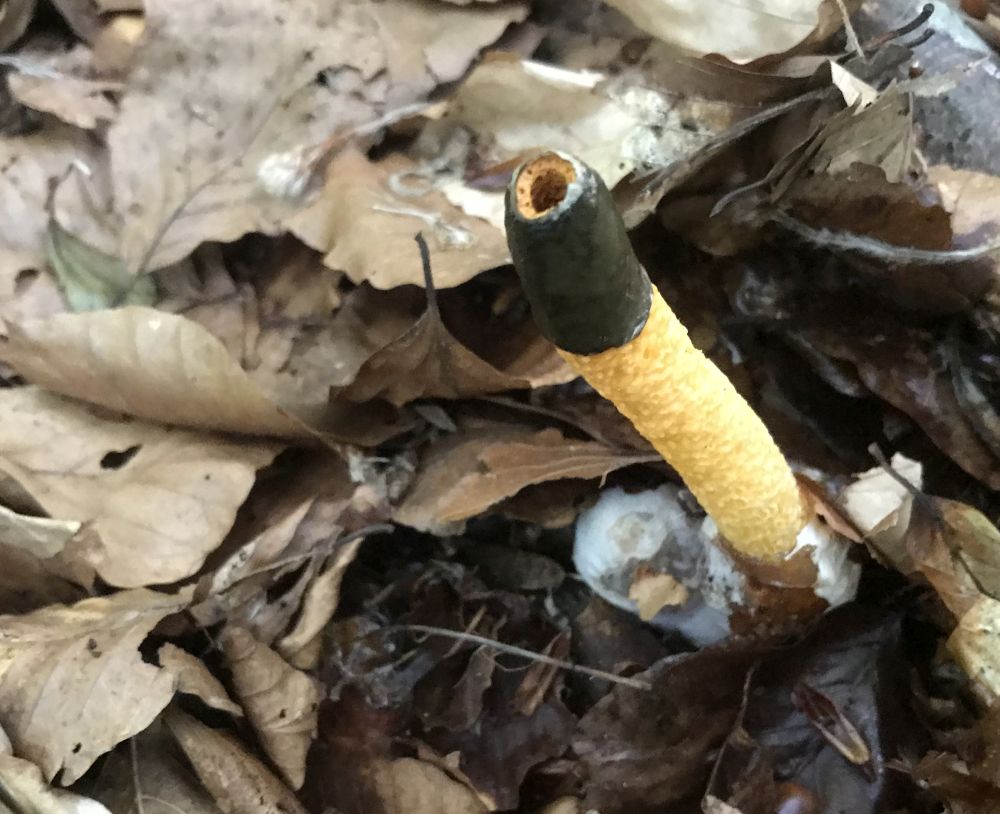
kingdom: Fungi
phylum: Basidiomycota
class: Agaricomycetes
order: Phallales
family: Phallaceae
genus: Mutinus
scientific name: Mutinus caninus
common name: hunde-stinksvamp
